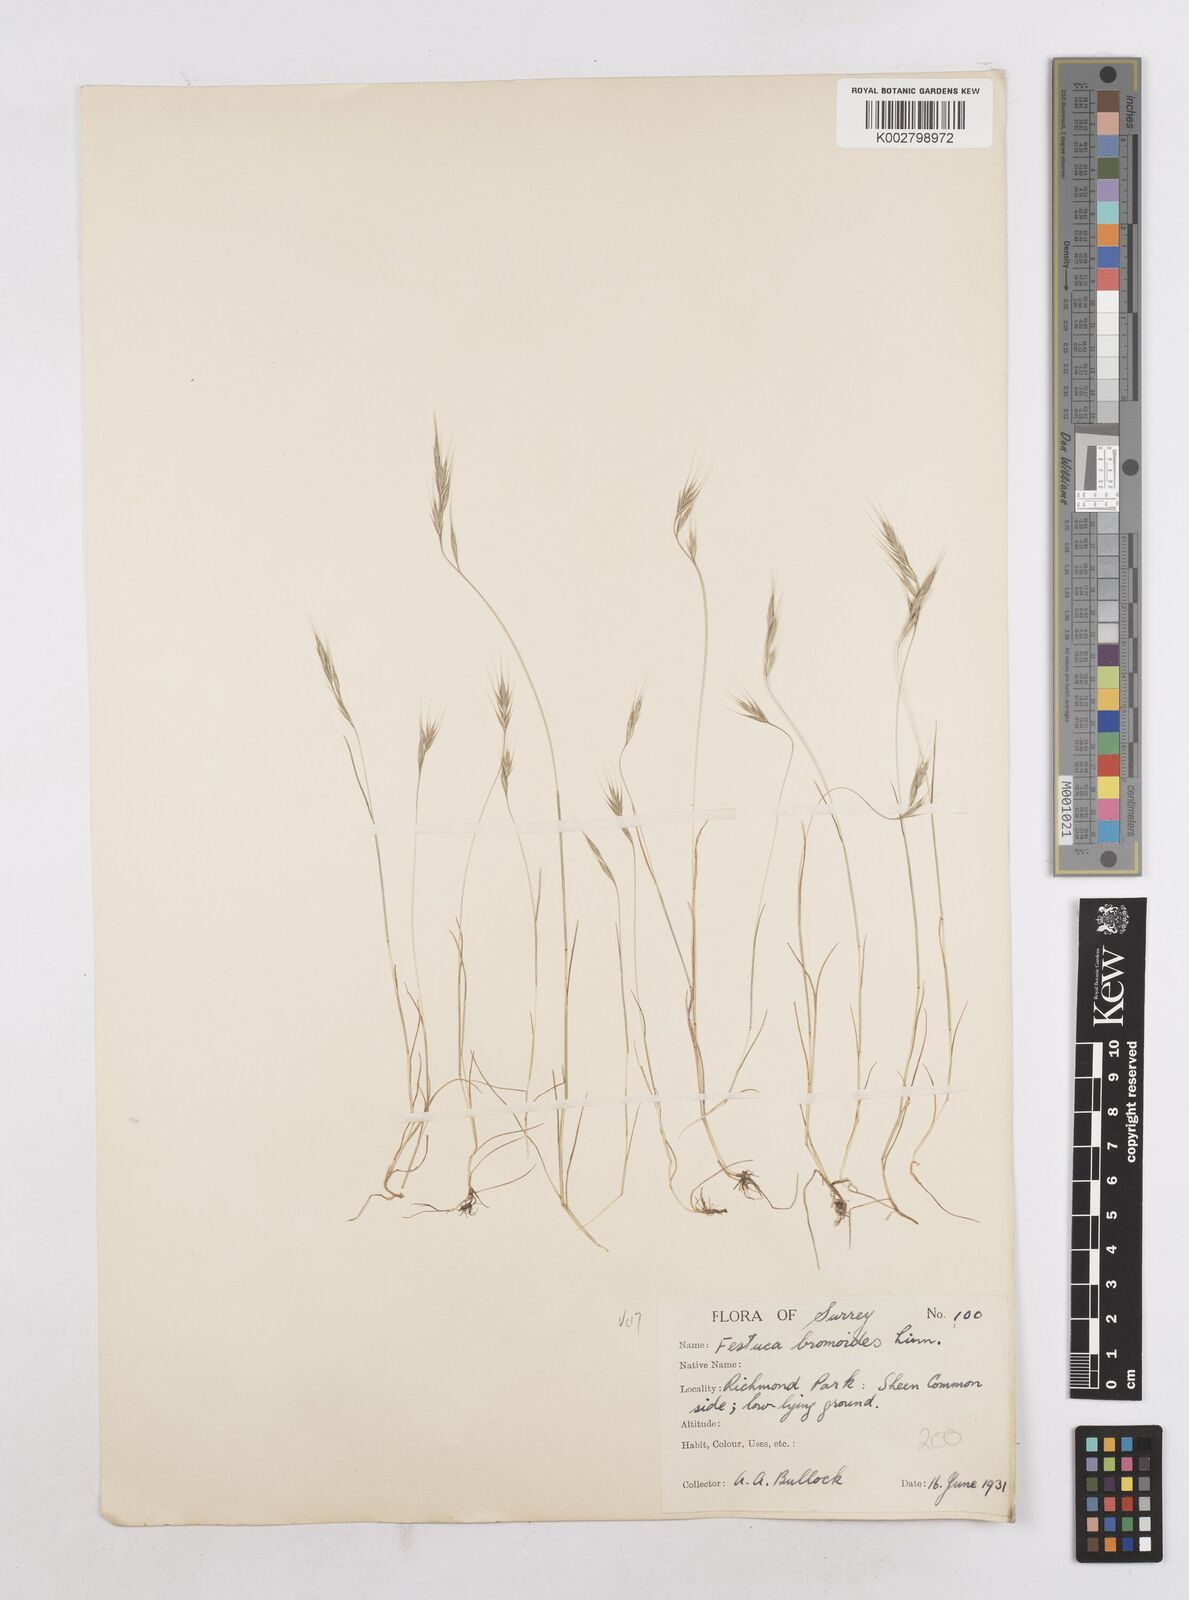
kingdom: Plantae
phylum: Tracheophyta
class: Liliopsida
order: Poales
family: Poaceae
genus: Festuca
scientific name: Festuca bromoides
